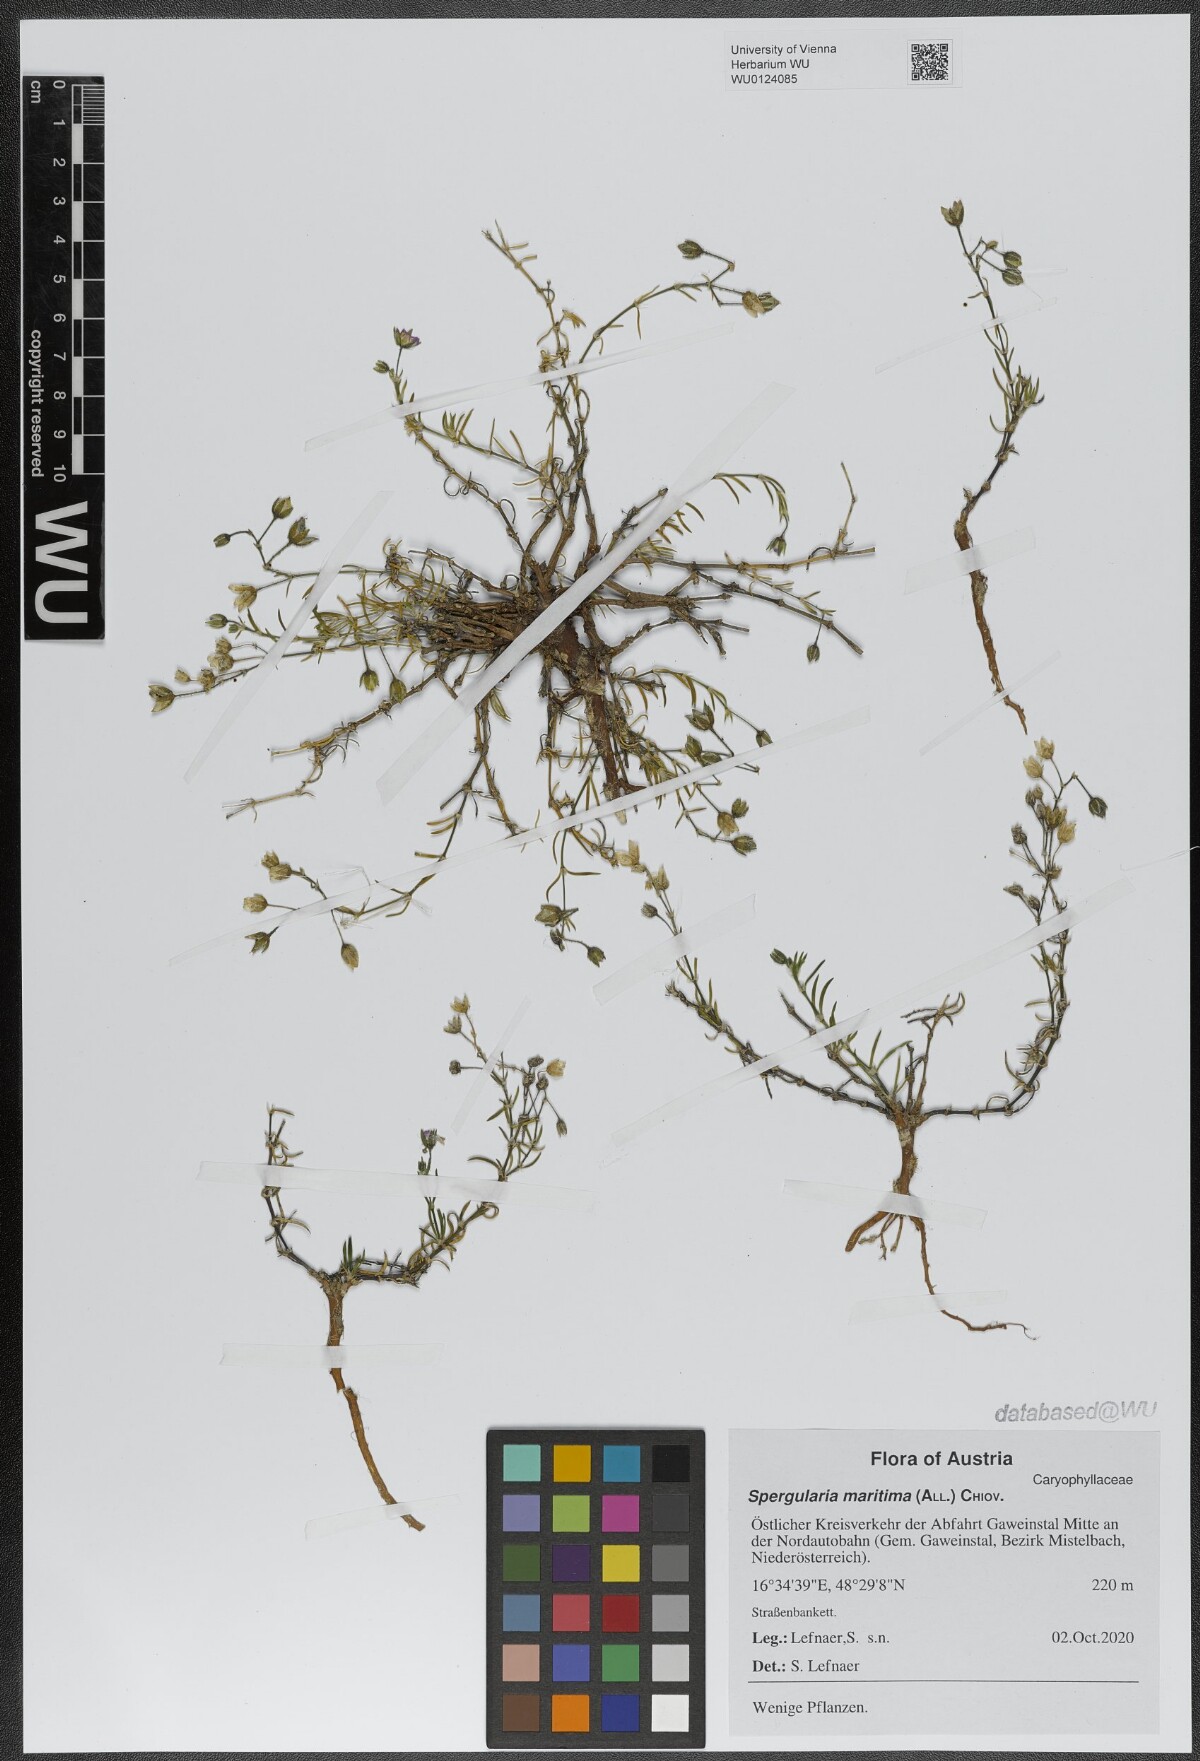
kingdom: Plantae
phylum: Tracheophyta
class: Magnoliopsida
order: Caryophyllales
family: Caryophyllaceae
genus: Spergularia
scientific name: Spergularia media
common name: Greater sea-spurrey
